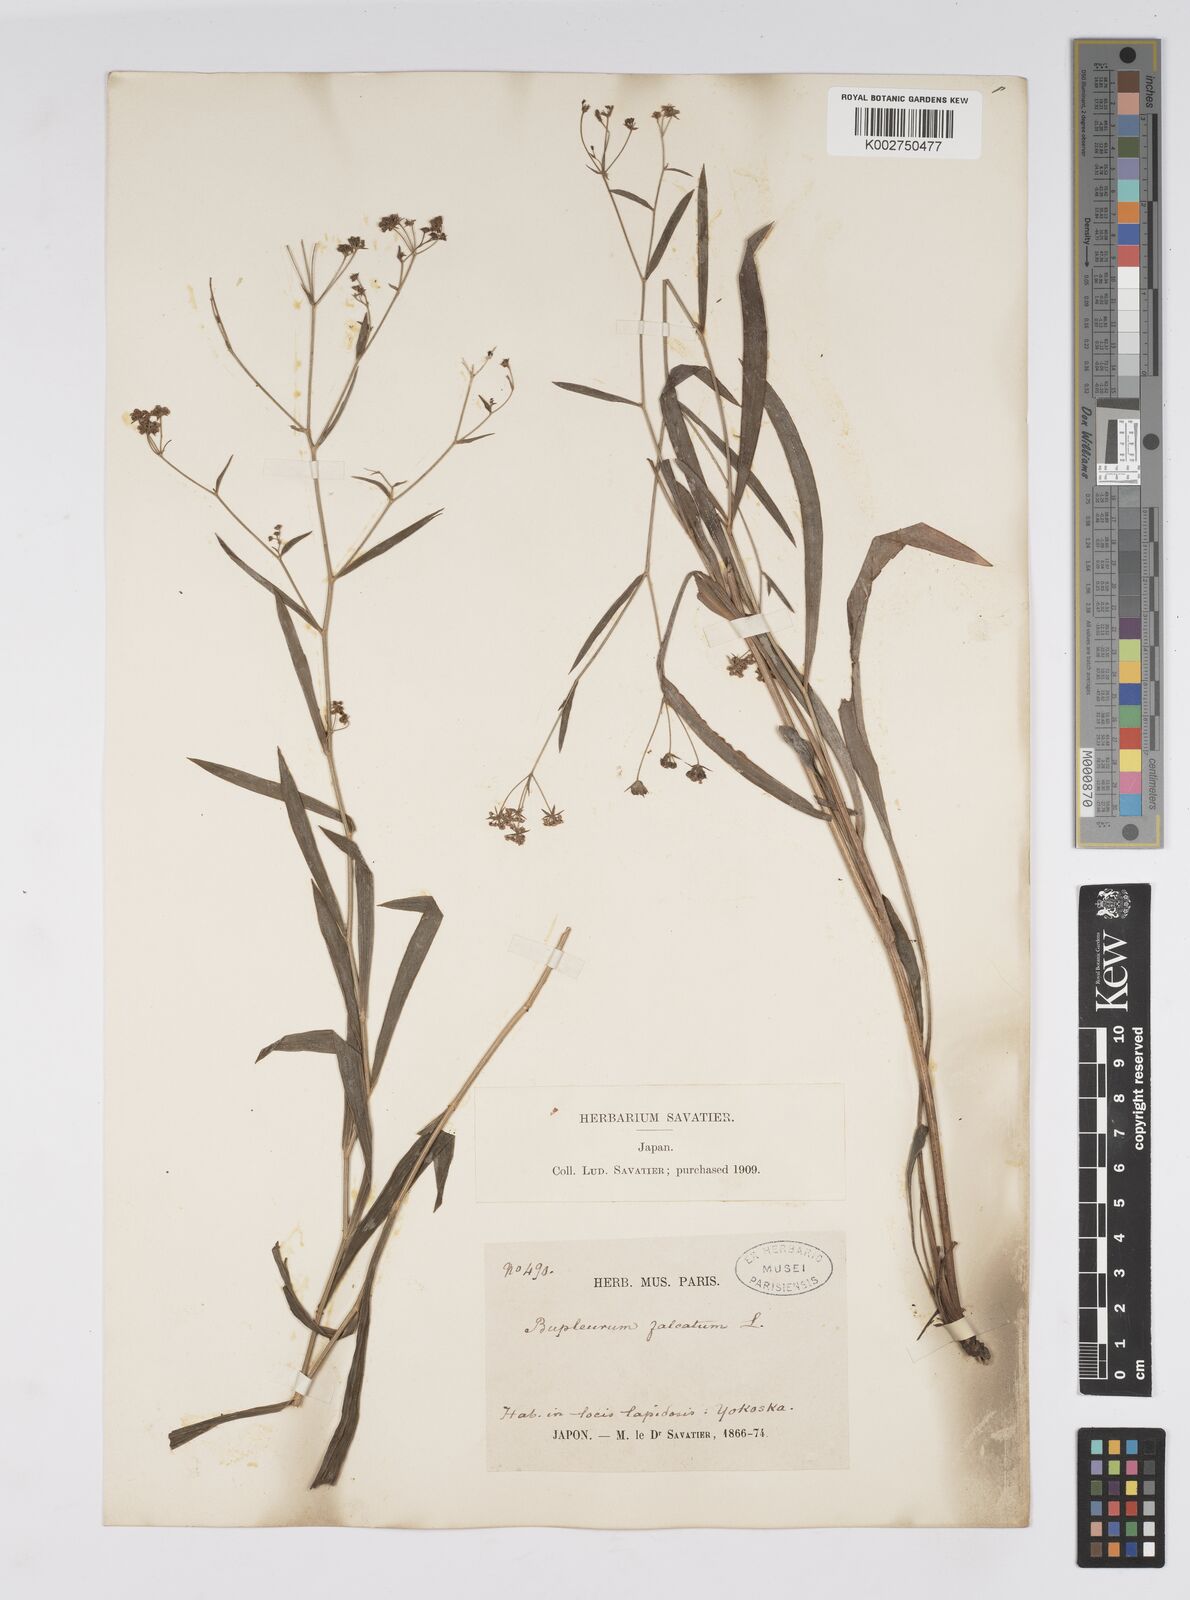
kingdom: Plantae
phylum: Tracheophyta
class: Magnoliopsida
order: Apiales
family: Apiaceae
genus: Bupleurum
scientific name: Bupleurum krylovianum
